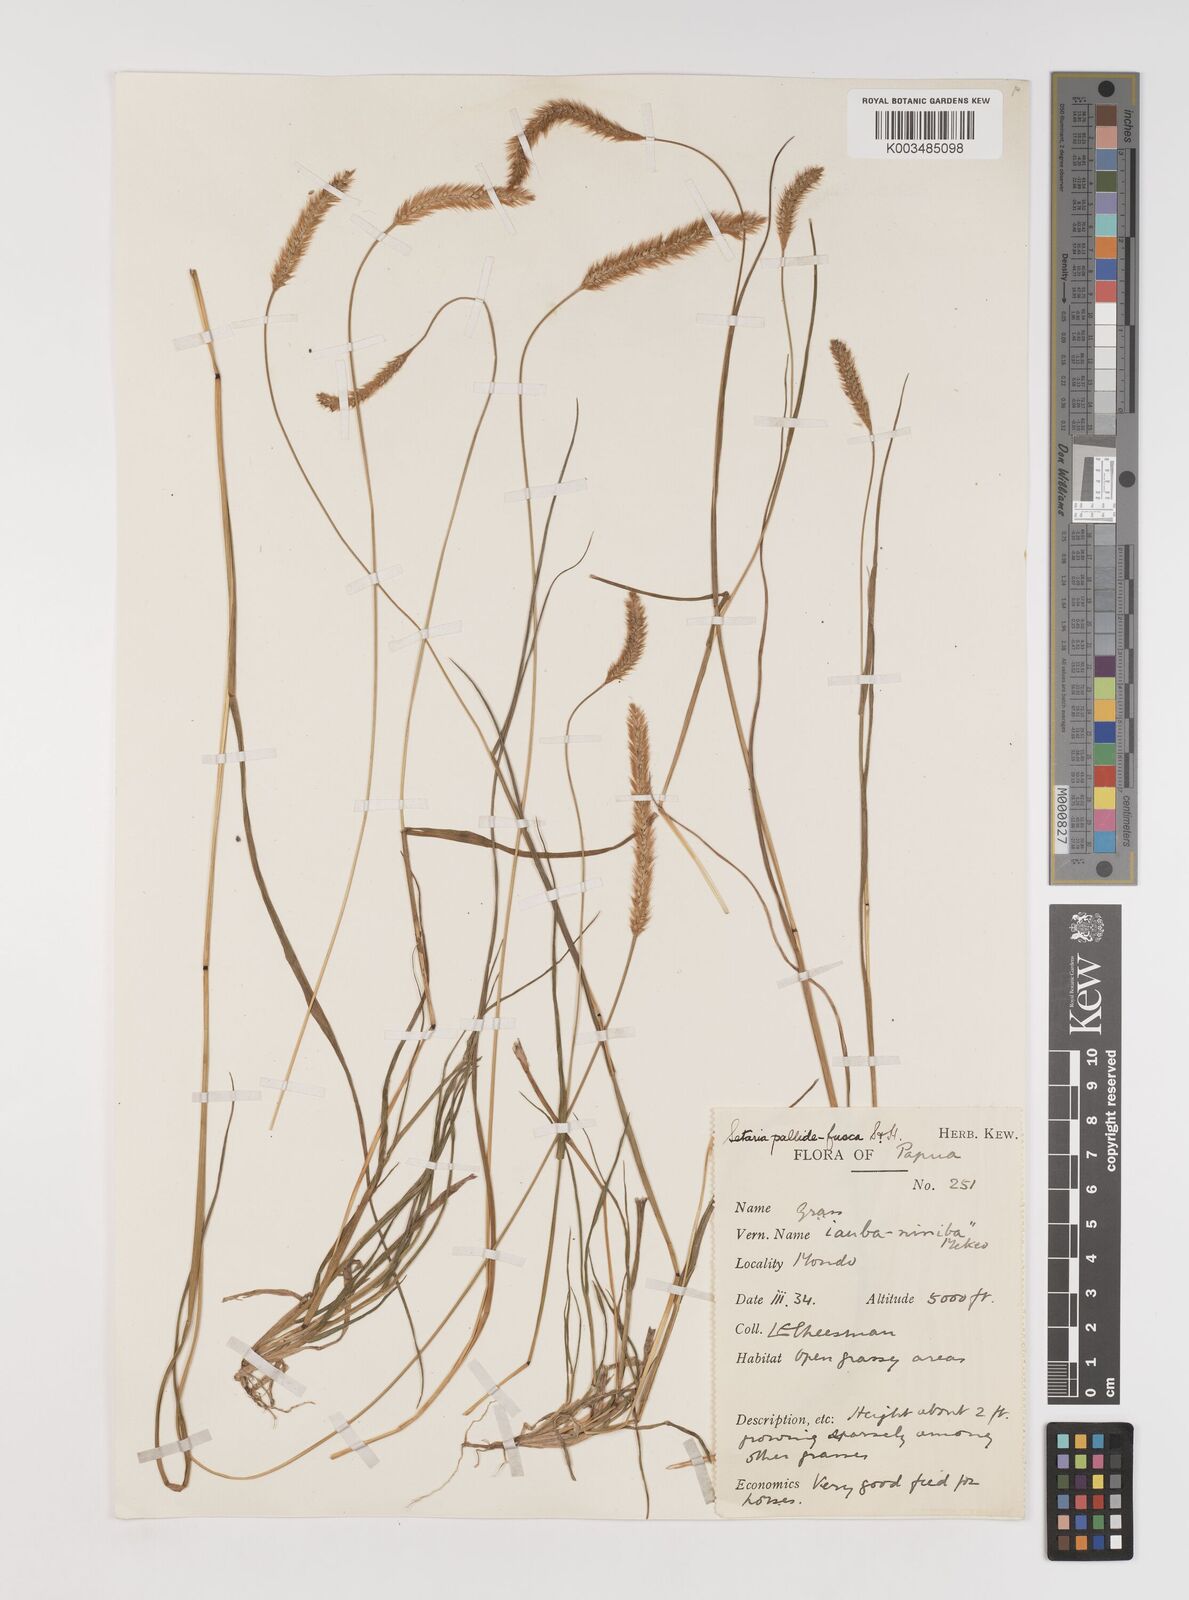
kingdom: Plantae
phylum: Tracheophyta
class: Liliopsida
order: Poales
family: Poaceae
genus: Setaria
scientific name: Setaria pumila
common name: Yellow bristle-grass
